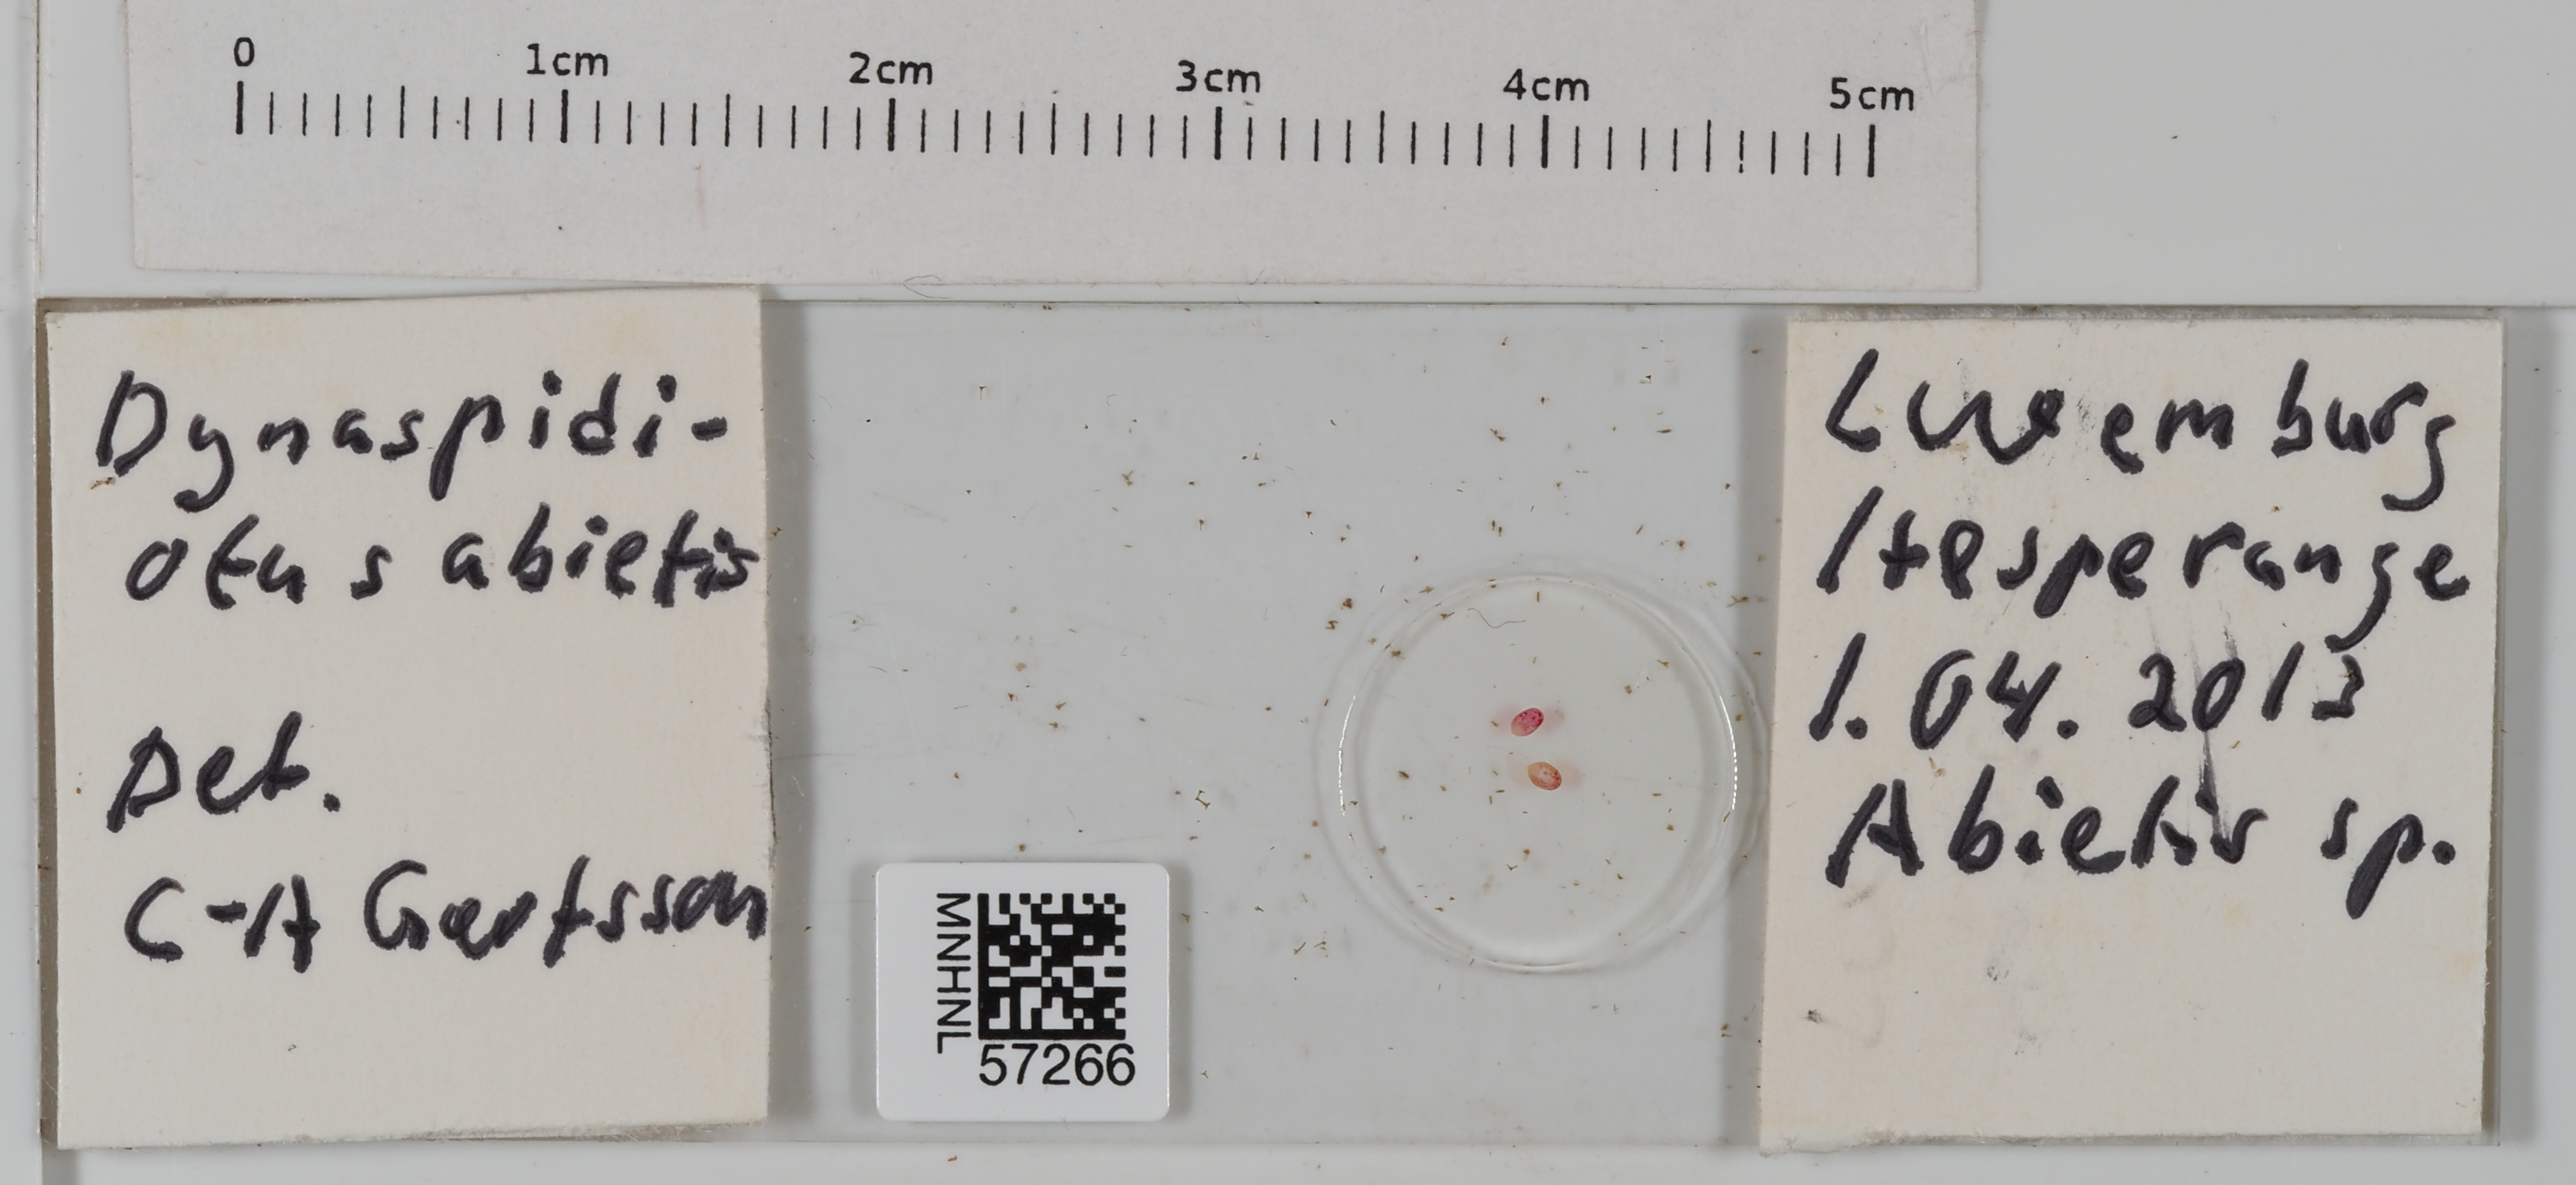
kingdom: Animalia
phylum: Arthropoda
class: Insecta
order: Hemiptera
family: Diaspididae
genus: Dynaspidiotus
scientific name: Dynaspidiotus abietis
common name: Hemlock scale
